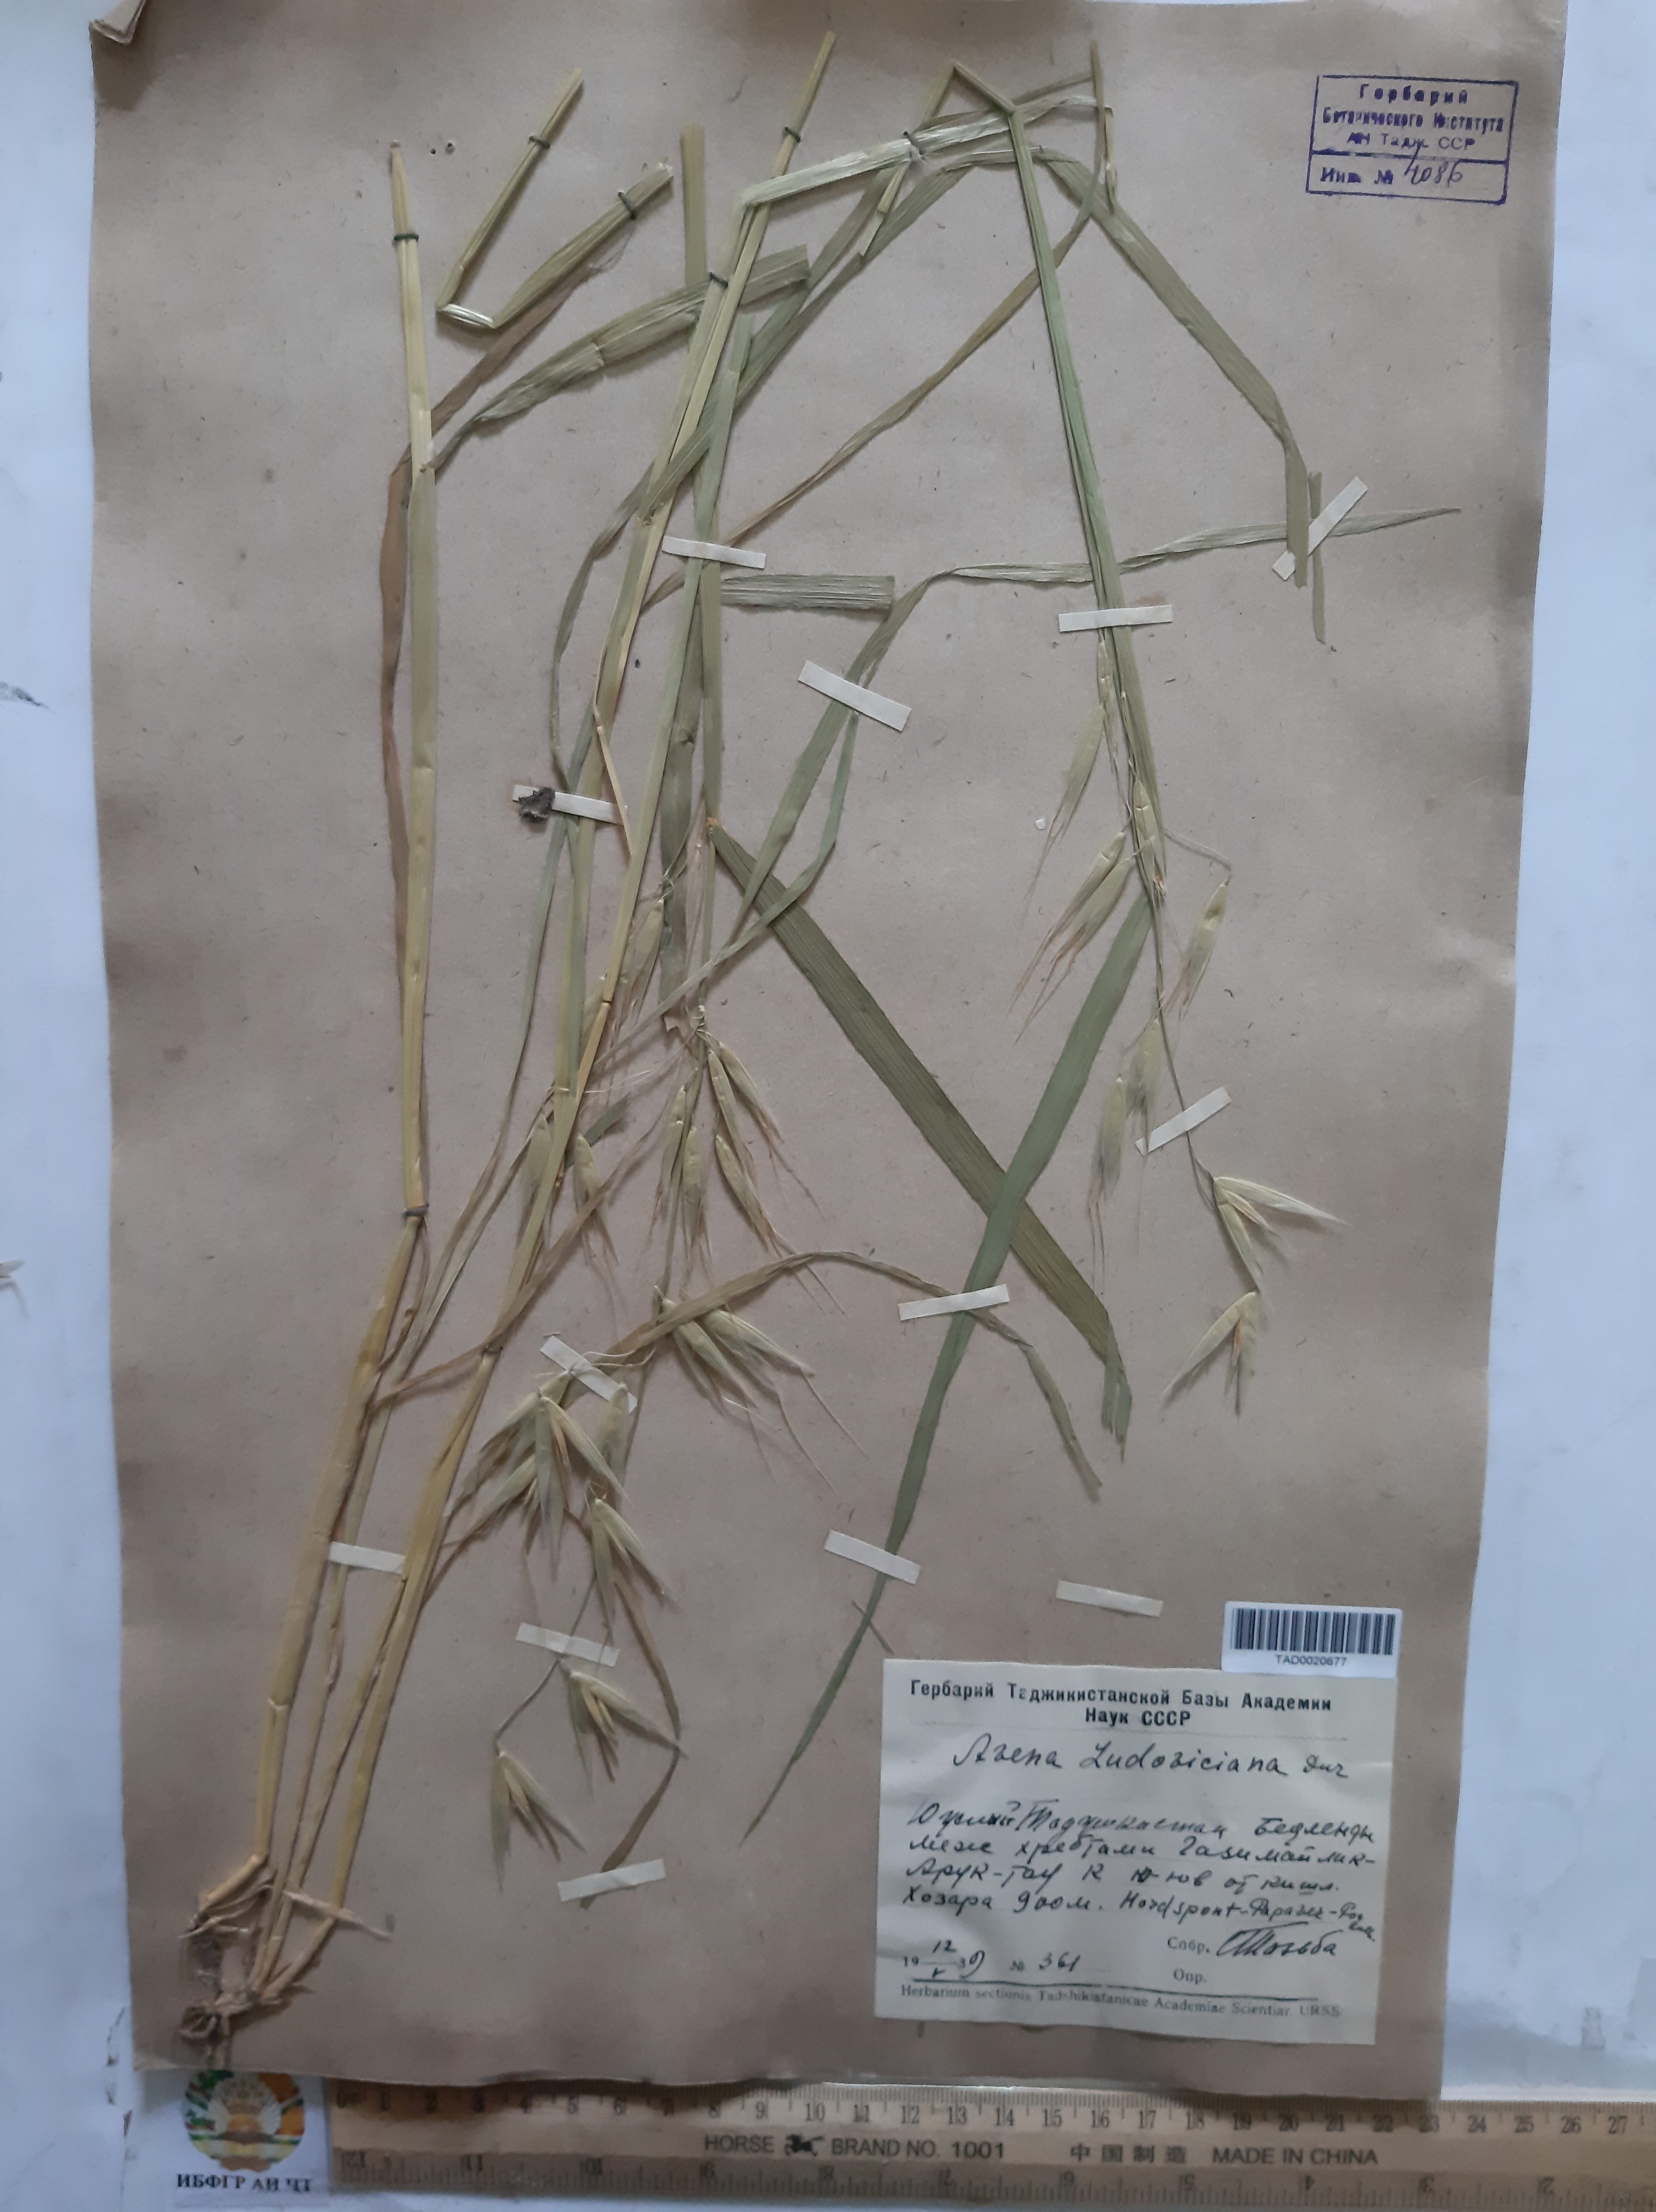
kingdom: Plantae
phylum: Tracheophyta
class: Liliopsida
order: Poales
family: Poaceae
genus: Avena
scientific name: Avena sterilis
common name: Animated oat
